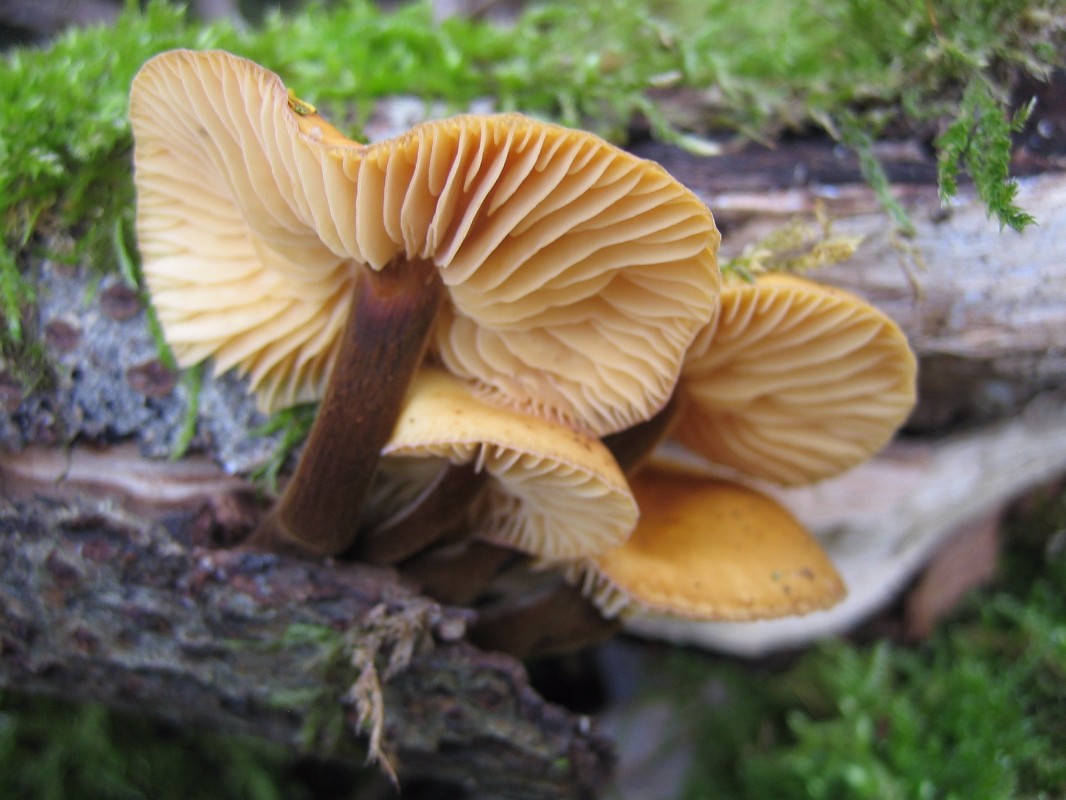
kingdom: Fungi
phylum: Basidiomycota
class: Agaricomycetes
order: Agaricales
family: Physalacriaceae
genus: Flammulina
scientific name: Flammulina elastica
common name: pile-fløjlsfod
